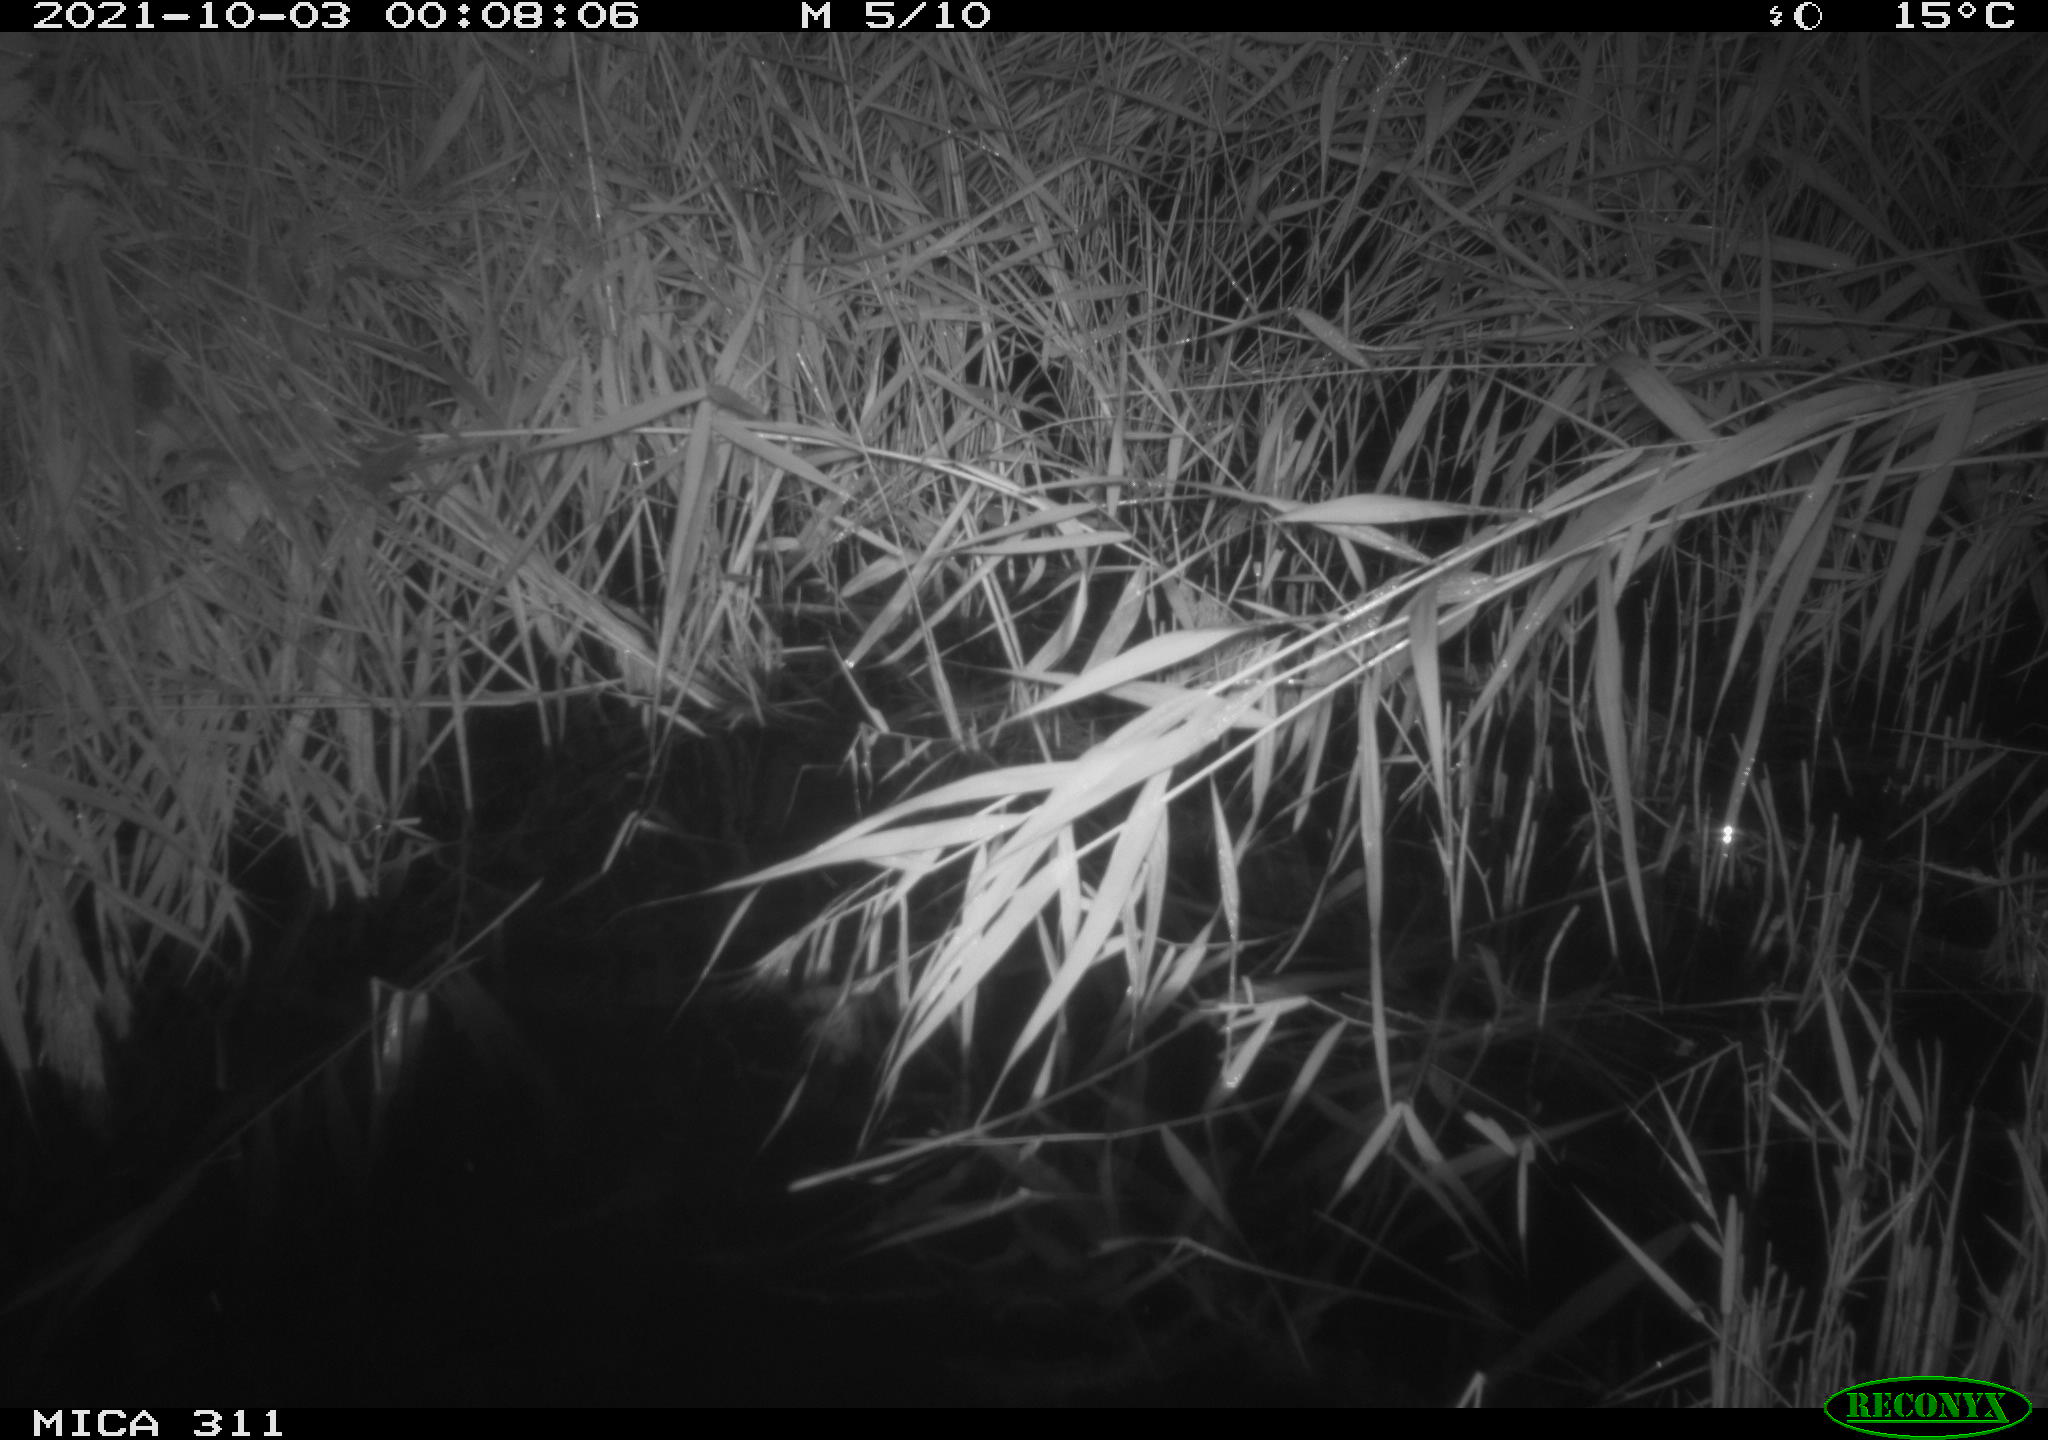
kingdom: Animalia
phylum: Chordata
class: Mammalia
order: Rodentia
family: Muridae
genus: Rattus
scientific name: Rattus norvegicus
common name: Brown rat
